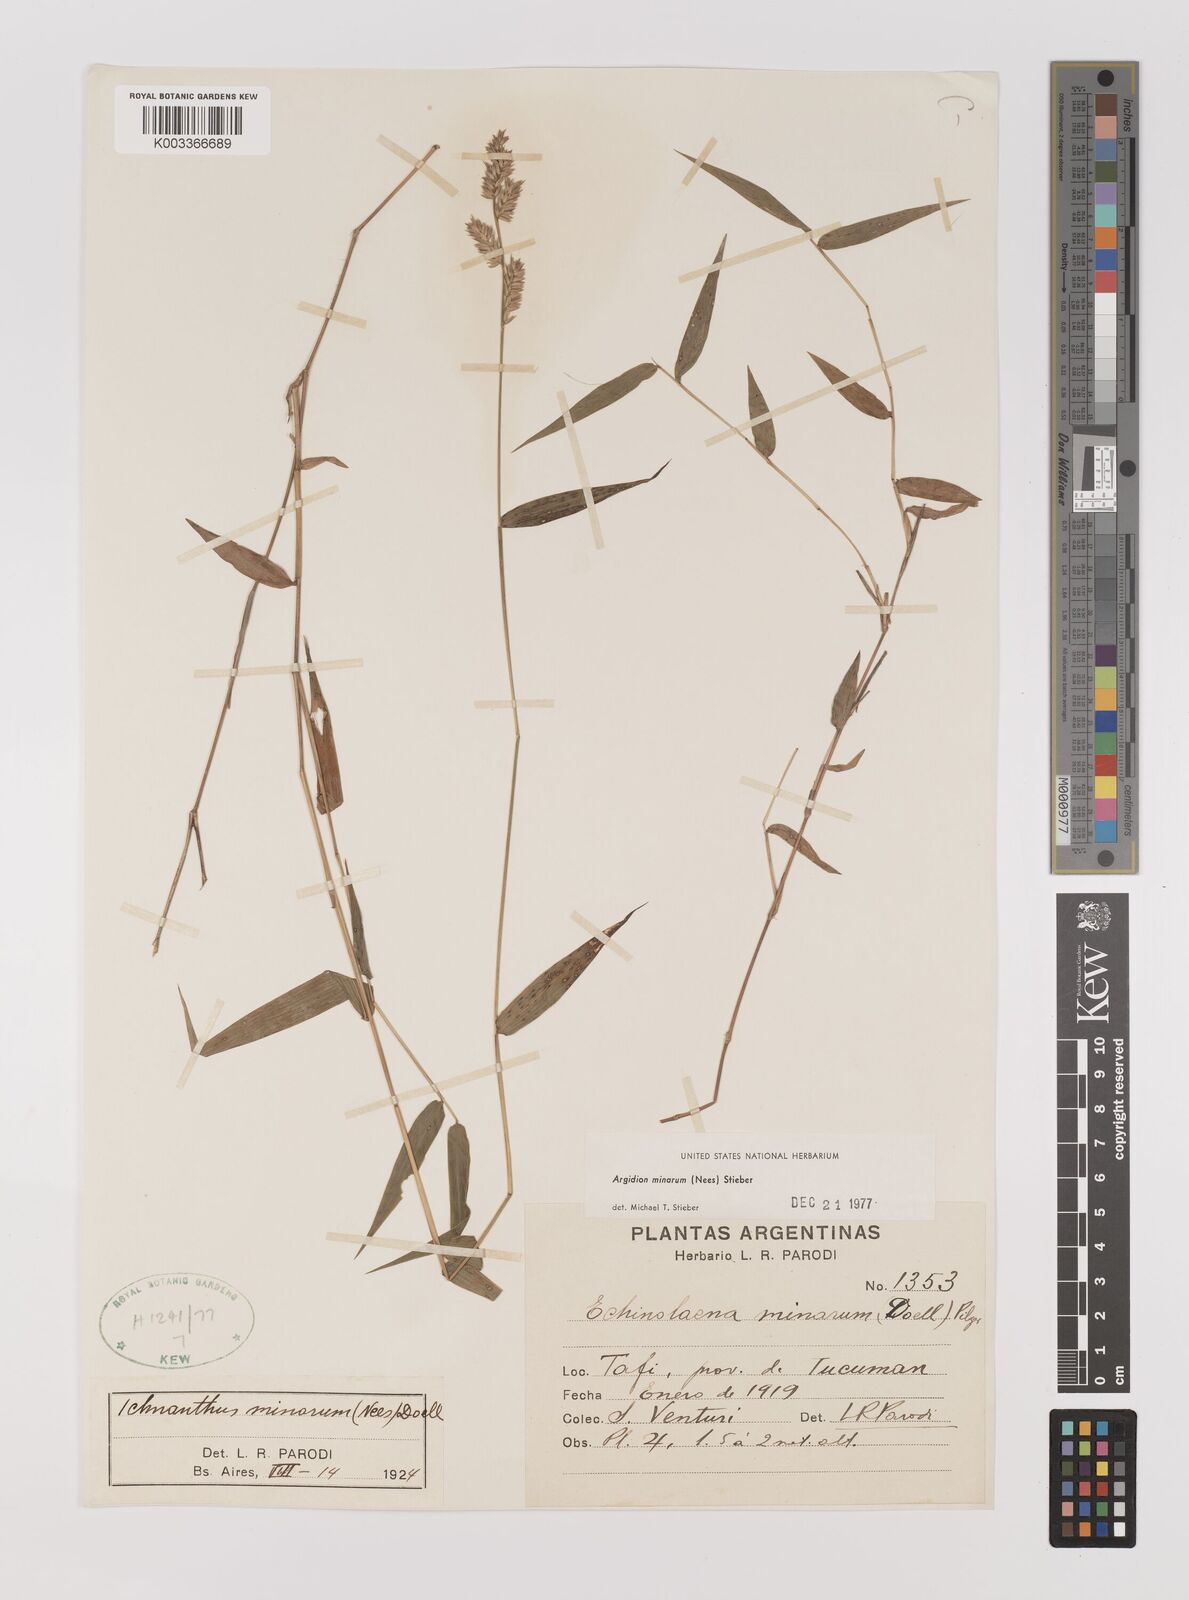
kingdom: Plantae
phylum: Tracheophyta
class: Liliopsida
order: Poales
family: Poaceae
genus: Oedochloa
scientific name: Oedochloa minarum
